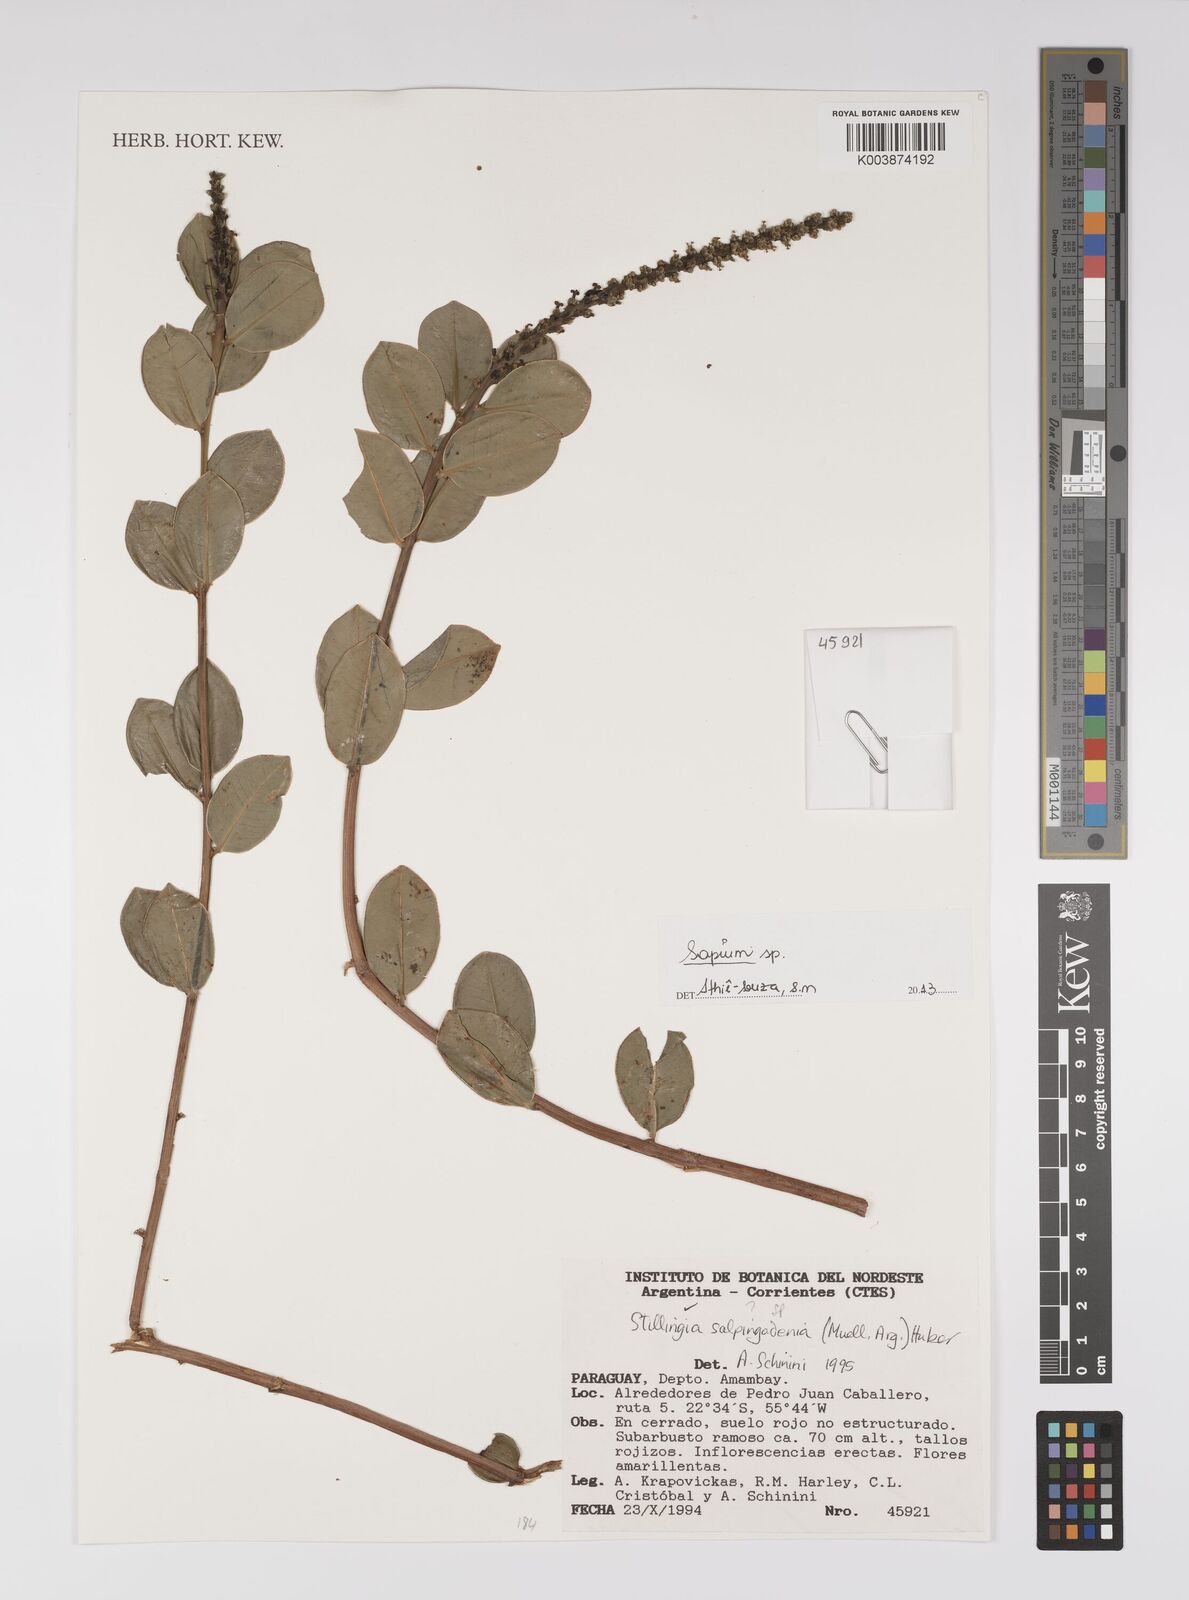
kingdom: Plantae
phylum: Tracheophyta
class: Magnoliopsida
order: Malpighiales
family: Euphorbiaceae
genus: Sapium
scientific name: Sapium
